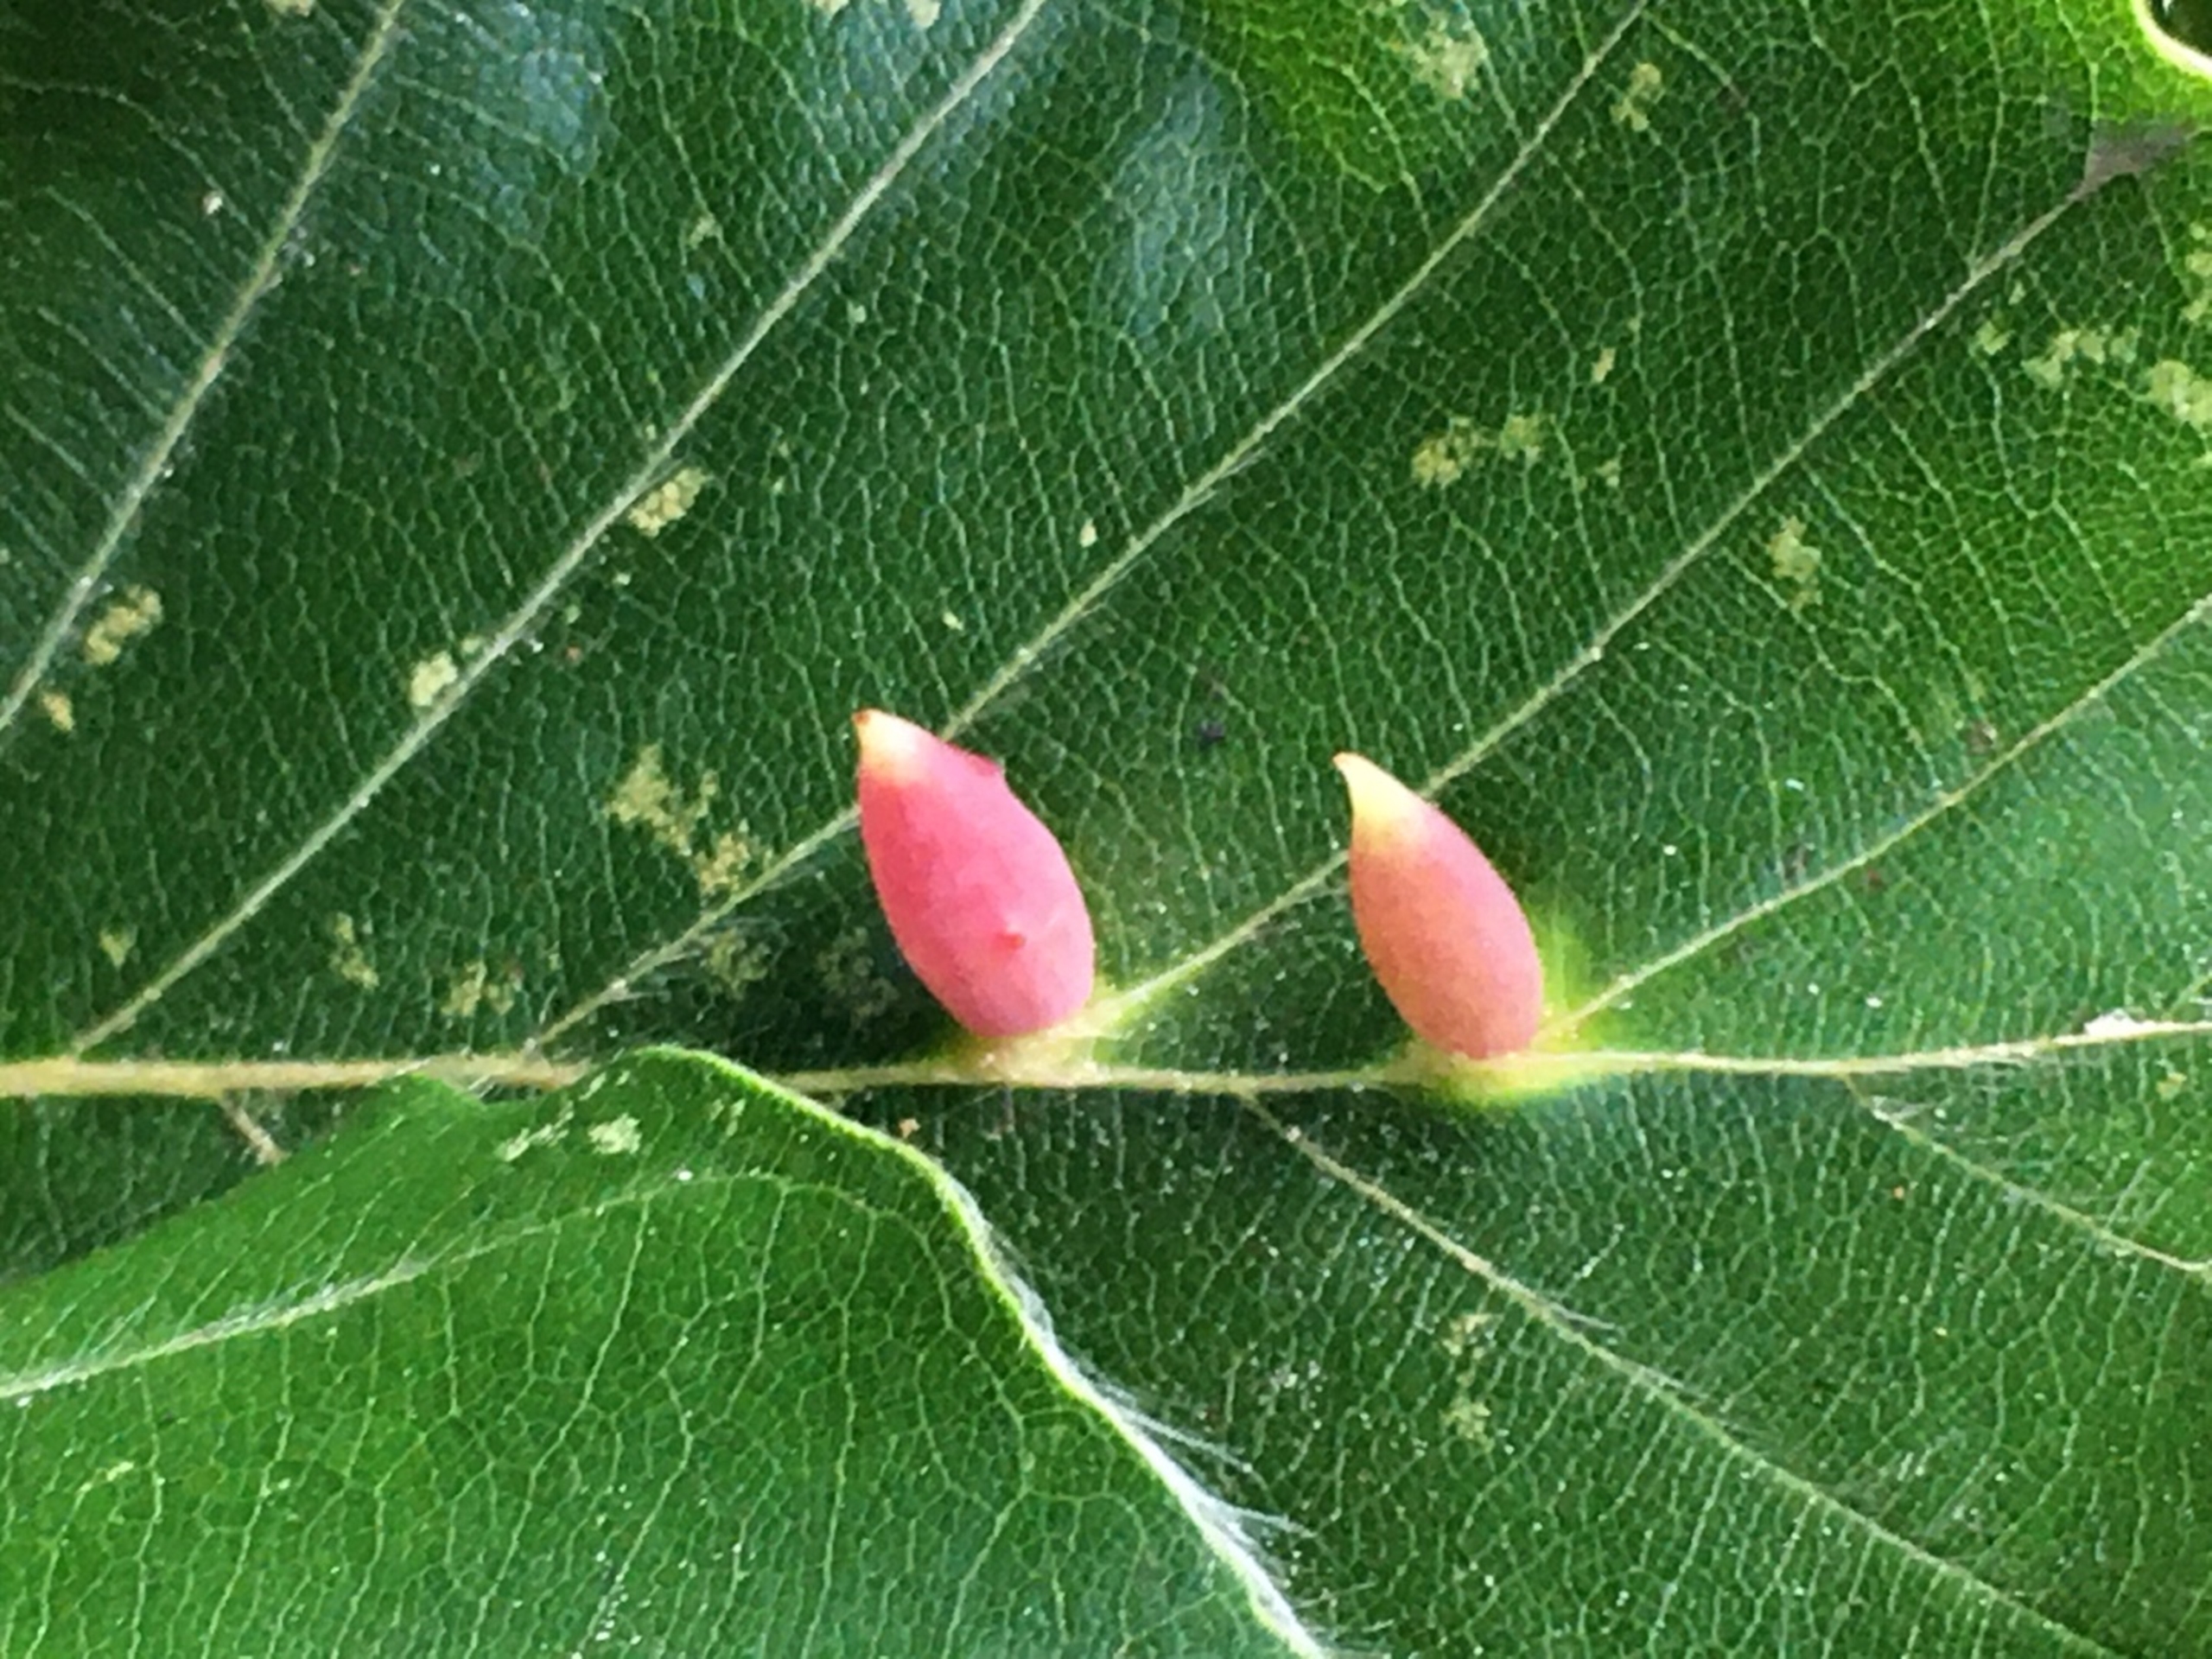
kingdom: Animalia
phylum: Arthropoda
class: Insecta
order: Diptera
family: Cecidomyiidae
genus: Mikiola
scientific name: Mikiola fagi
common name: Bøgegalmyg
